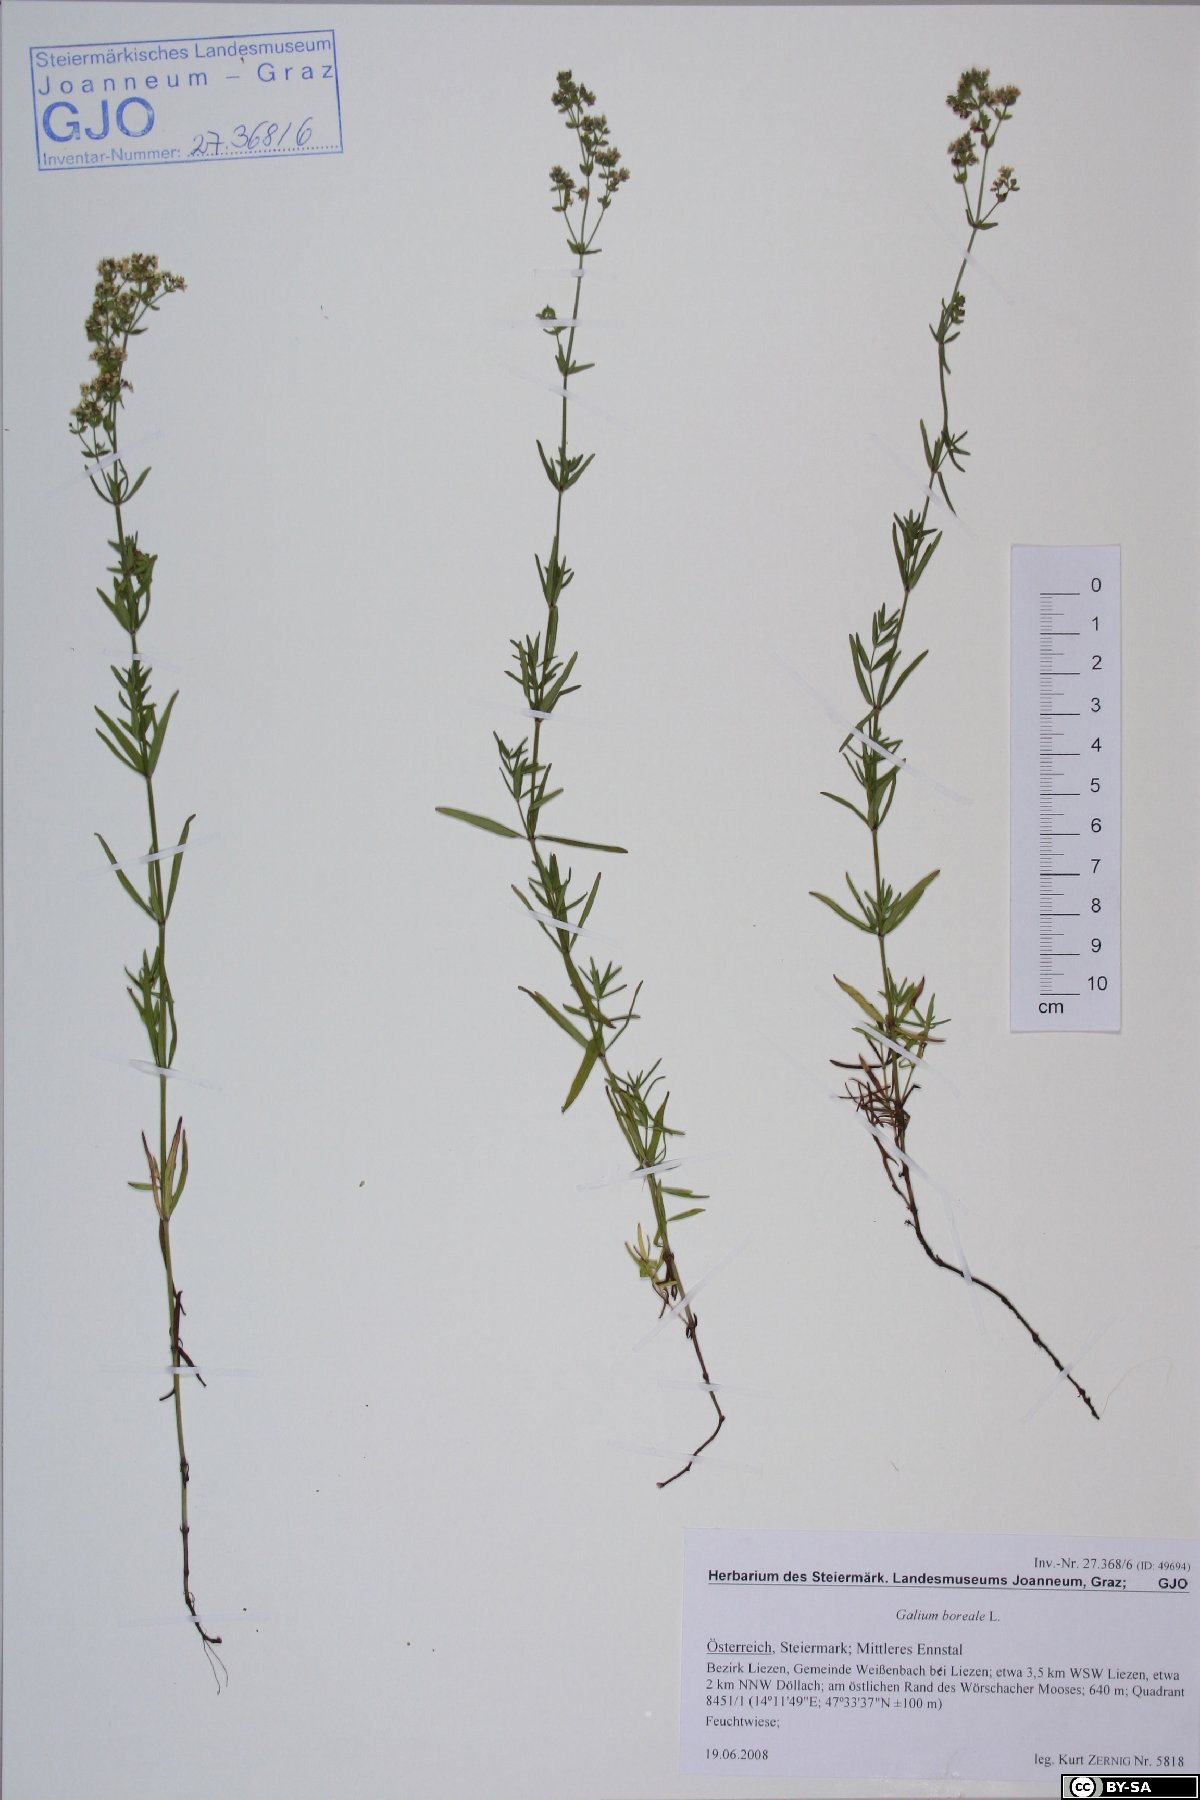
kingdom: Plantae
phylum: Tracheophyta
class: Magnoliopsida
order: Gentianales
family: Rubiaceae
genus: Galium
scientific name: Galium boreale
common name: Northern bedstraw
